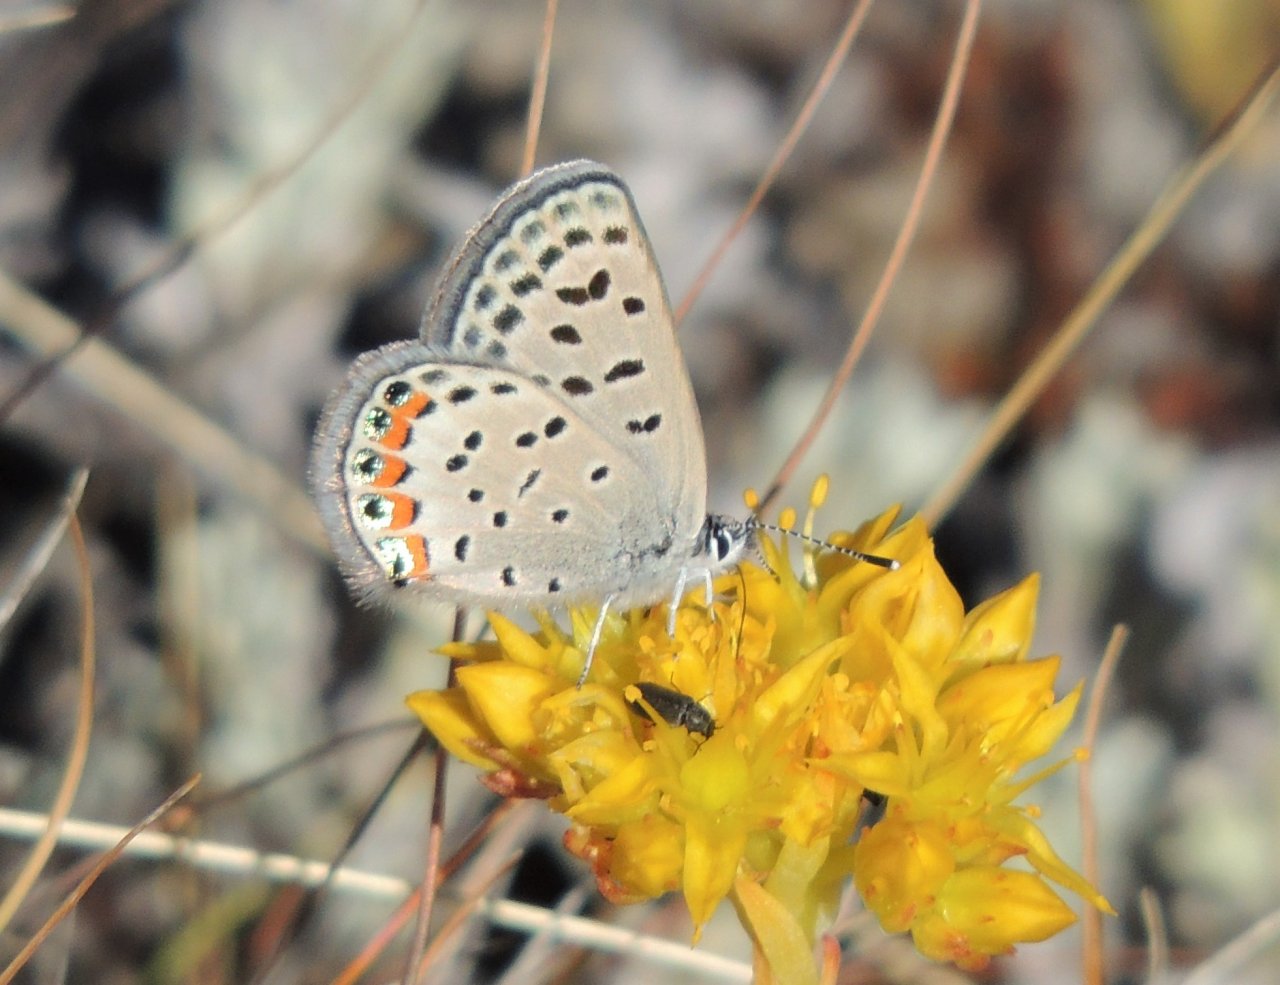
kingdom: Animalia
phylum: Arthropoda
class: Insecta
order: Lepidoptera
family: Lycaenidae
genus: Plebejus
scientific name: Plebejus lupini
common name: Lupine Blue
